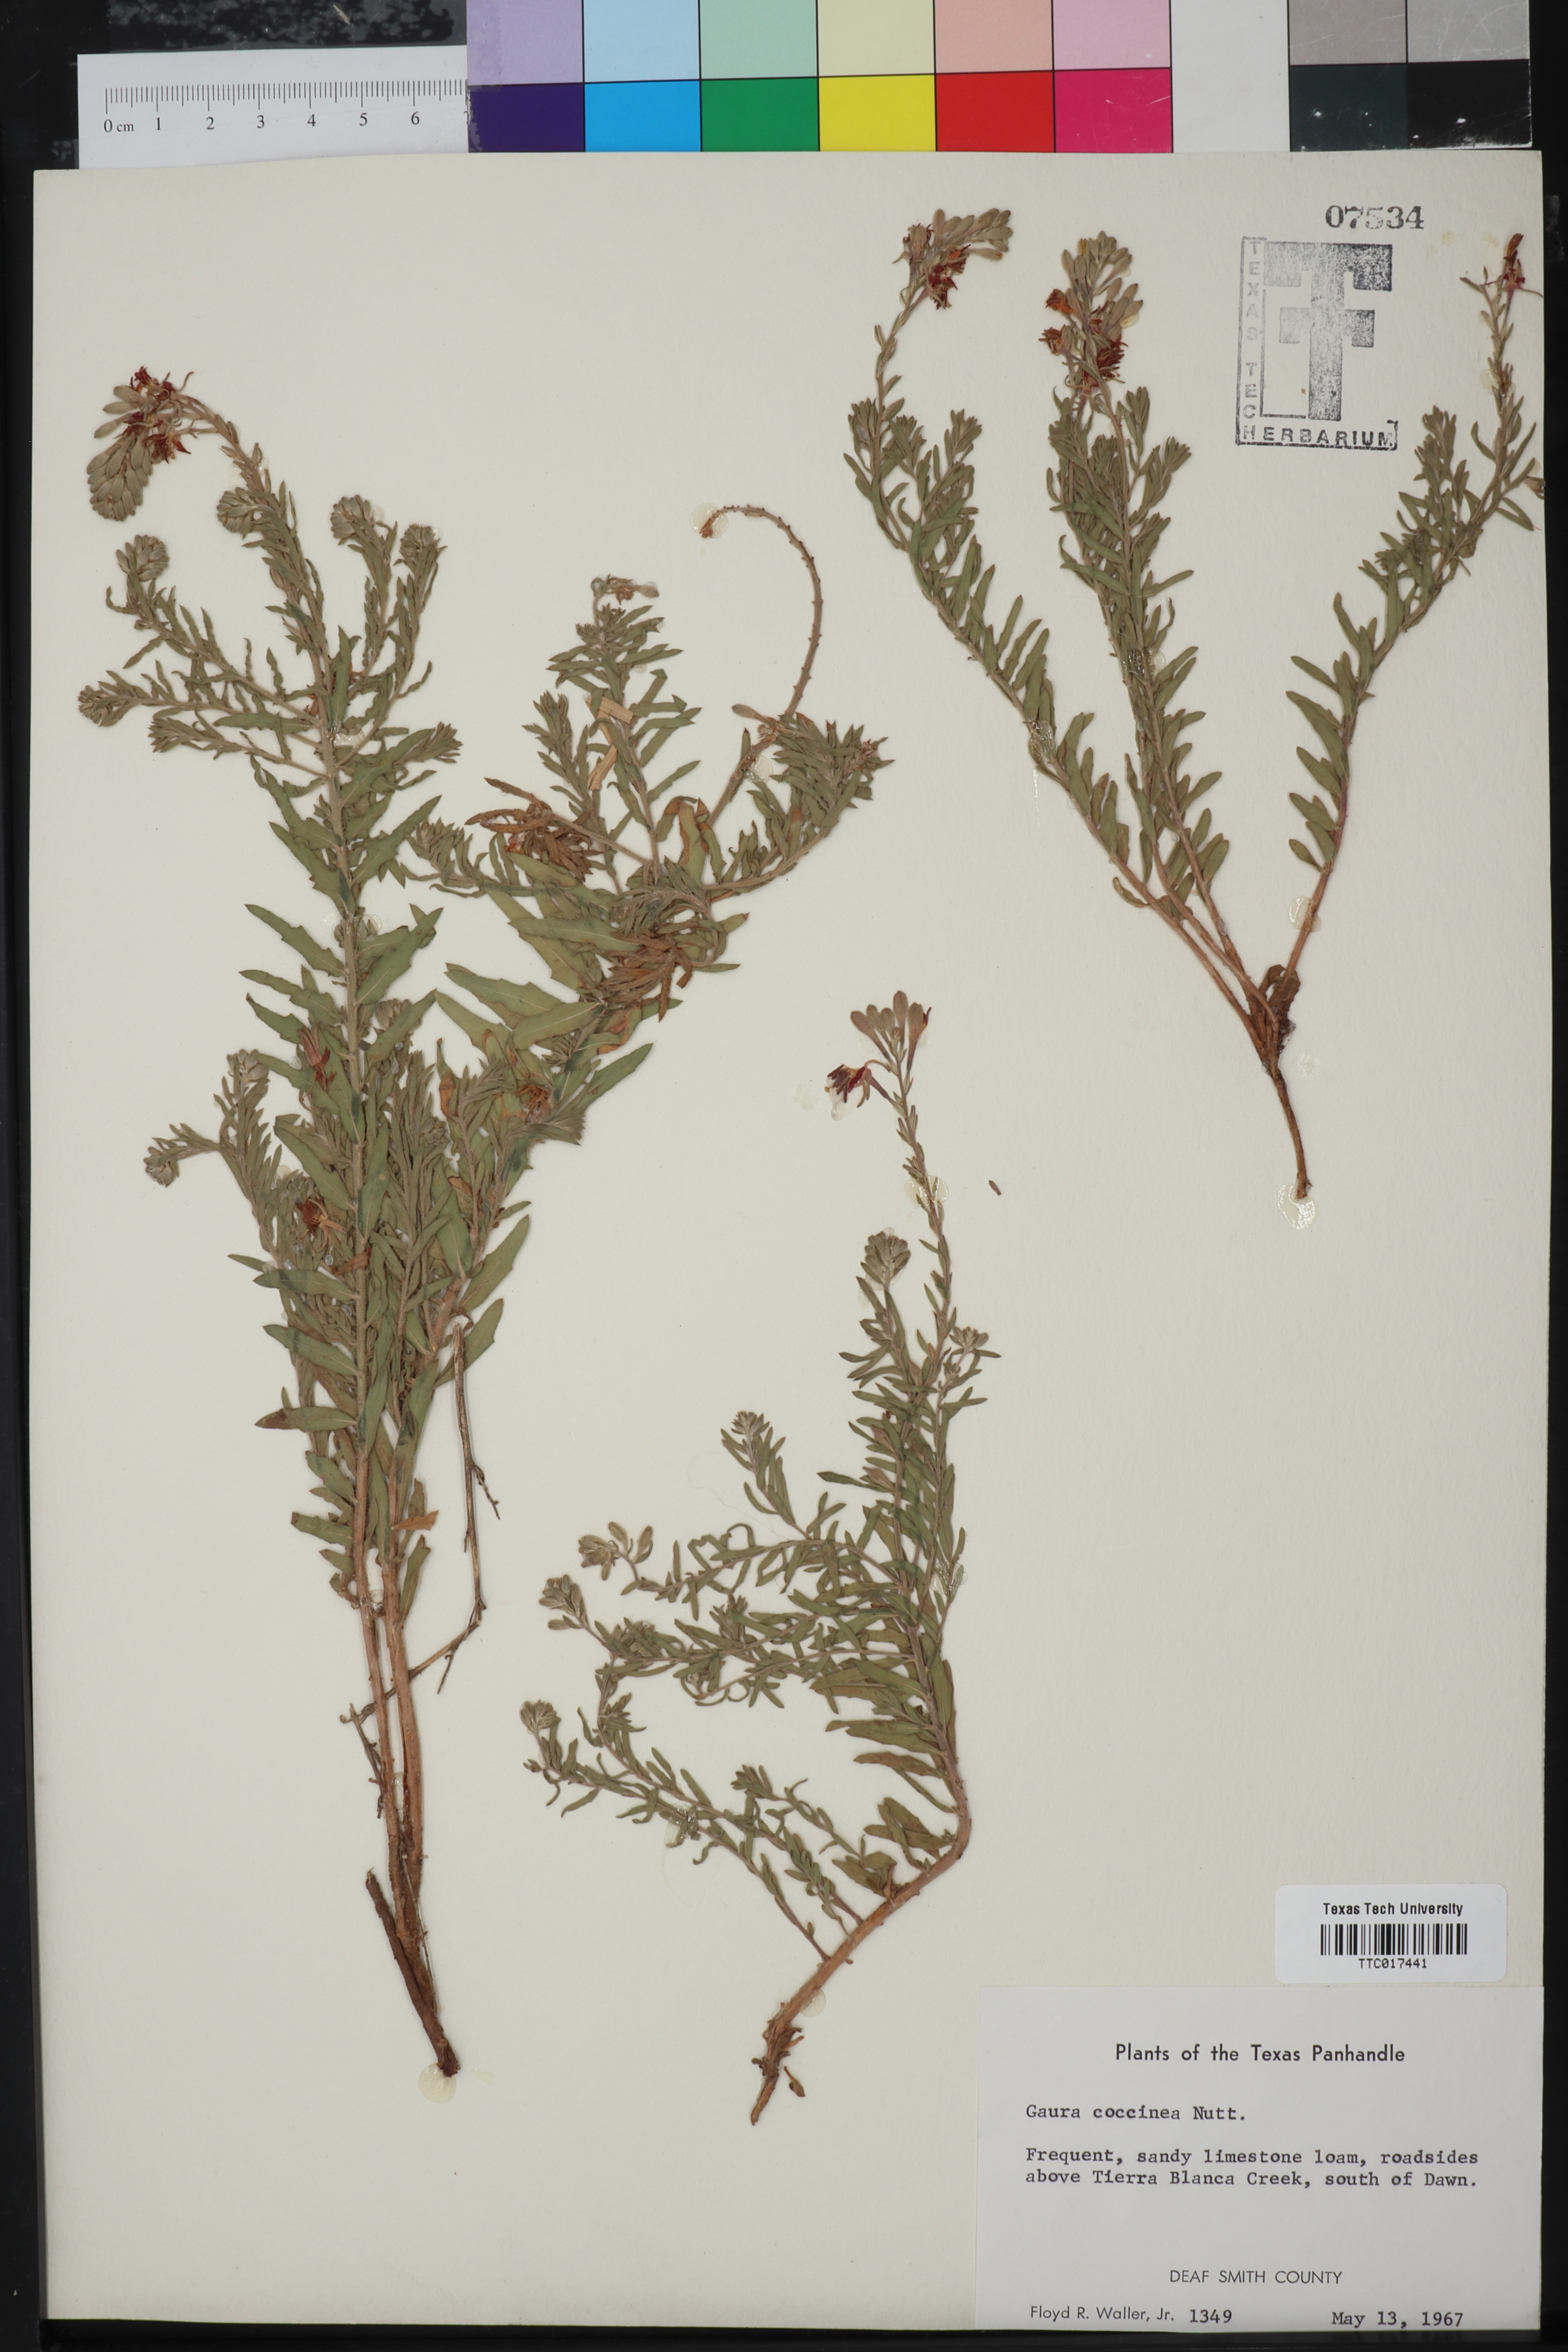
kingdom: Plantae
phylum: Tracheophyta
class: Magnoliopsida
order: Myrtales
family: Onagraceae
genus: Oenothera
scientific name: Oenothera suffrutescens
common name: Scarlet beeblossom
